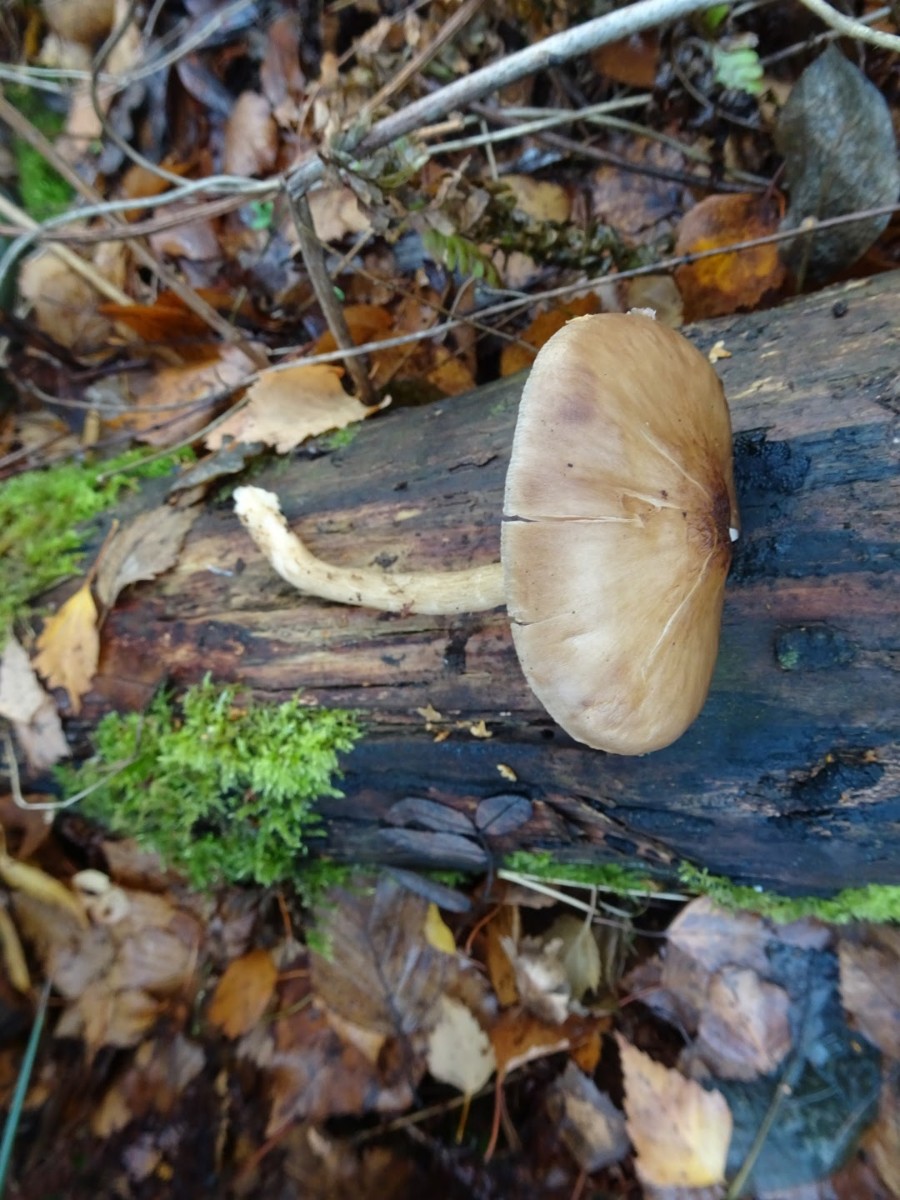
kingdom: Fungi
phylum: Basidiomycota
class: Agaricomycetes
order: Agaricales
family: Pluteaceae
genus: Pluteus
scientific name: Pluteus cervinus
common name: sodfarvet skærmhat
